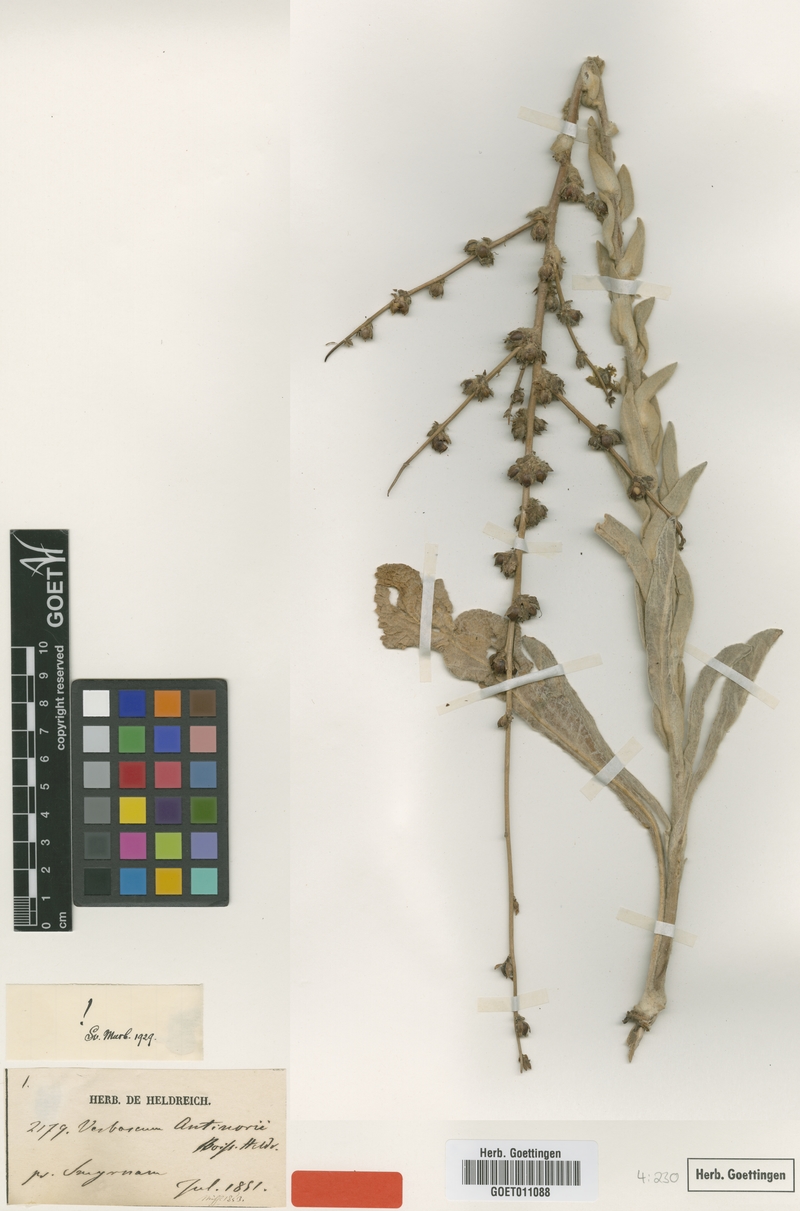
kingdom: Plantae
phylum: Tracheophyta
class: Magnoliopsida
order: Lamiales
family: Scrophulariaceae
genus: Verbascum
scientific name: Verbascum antinori
